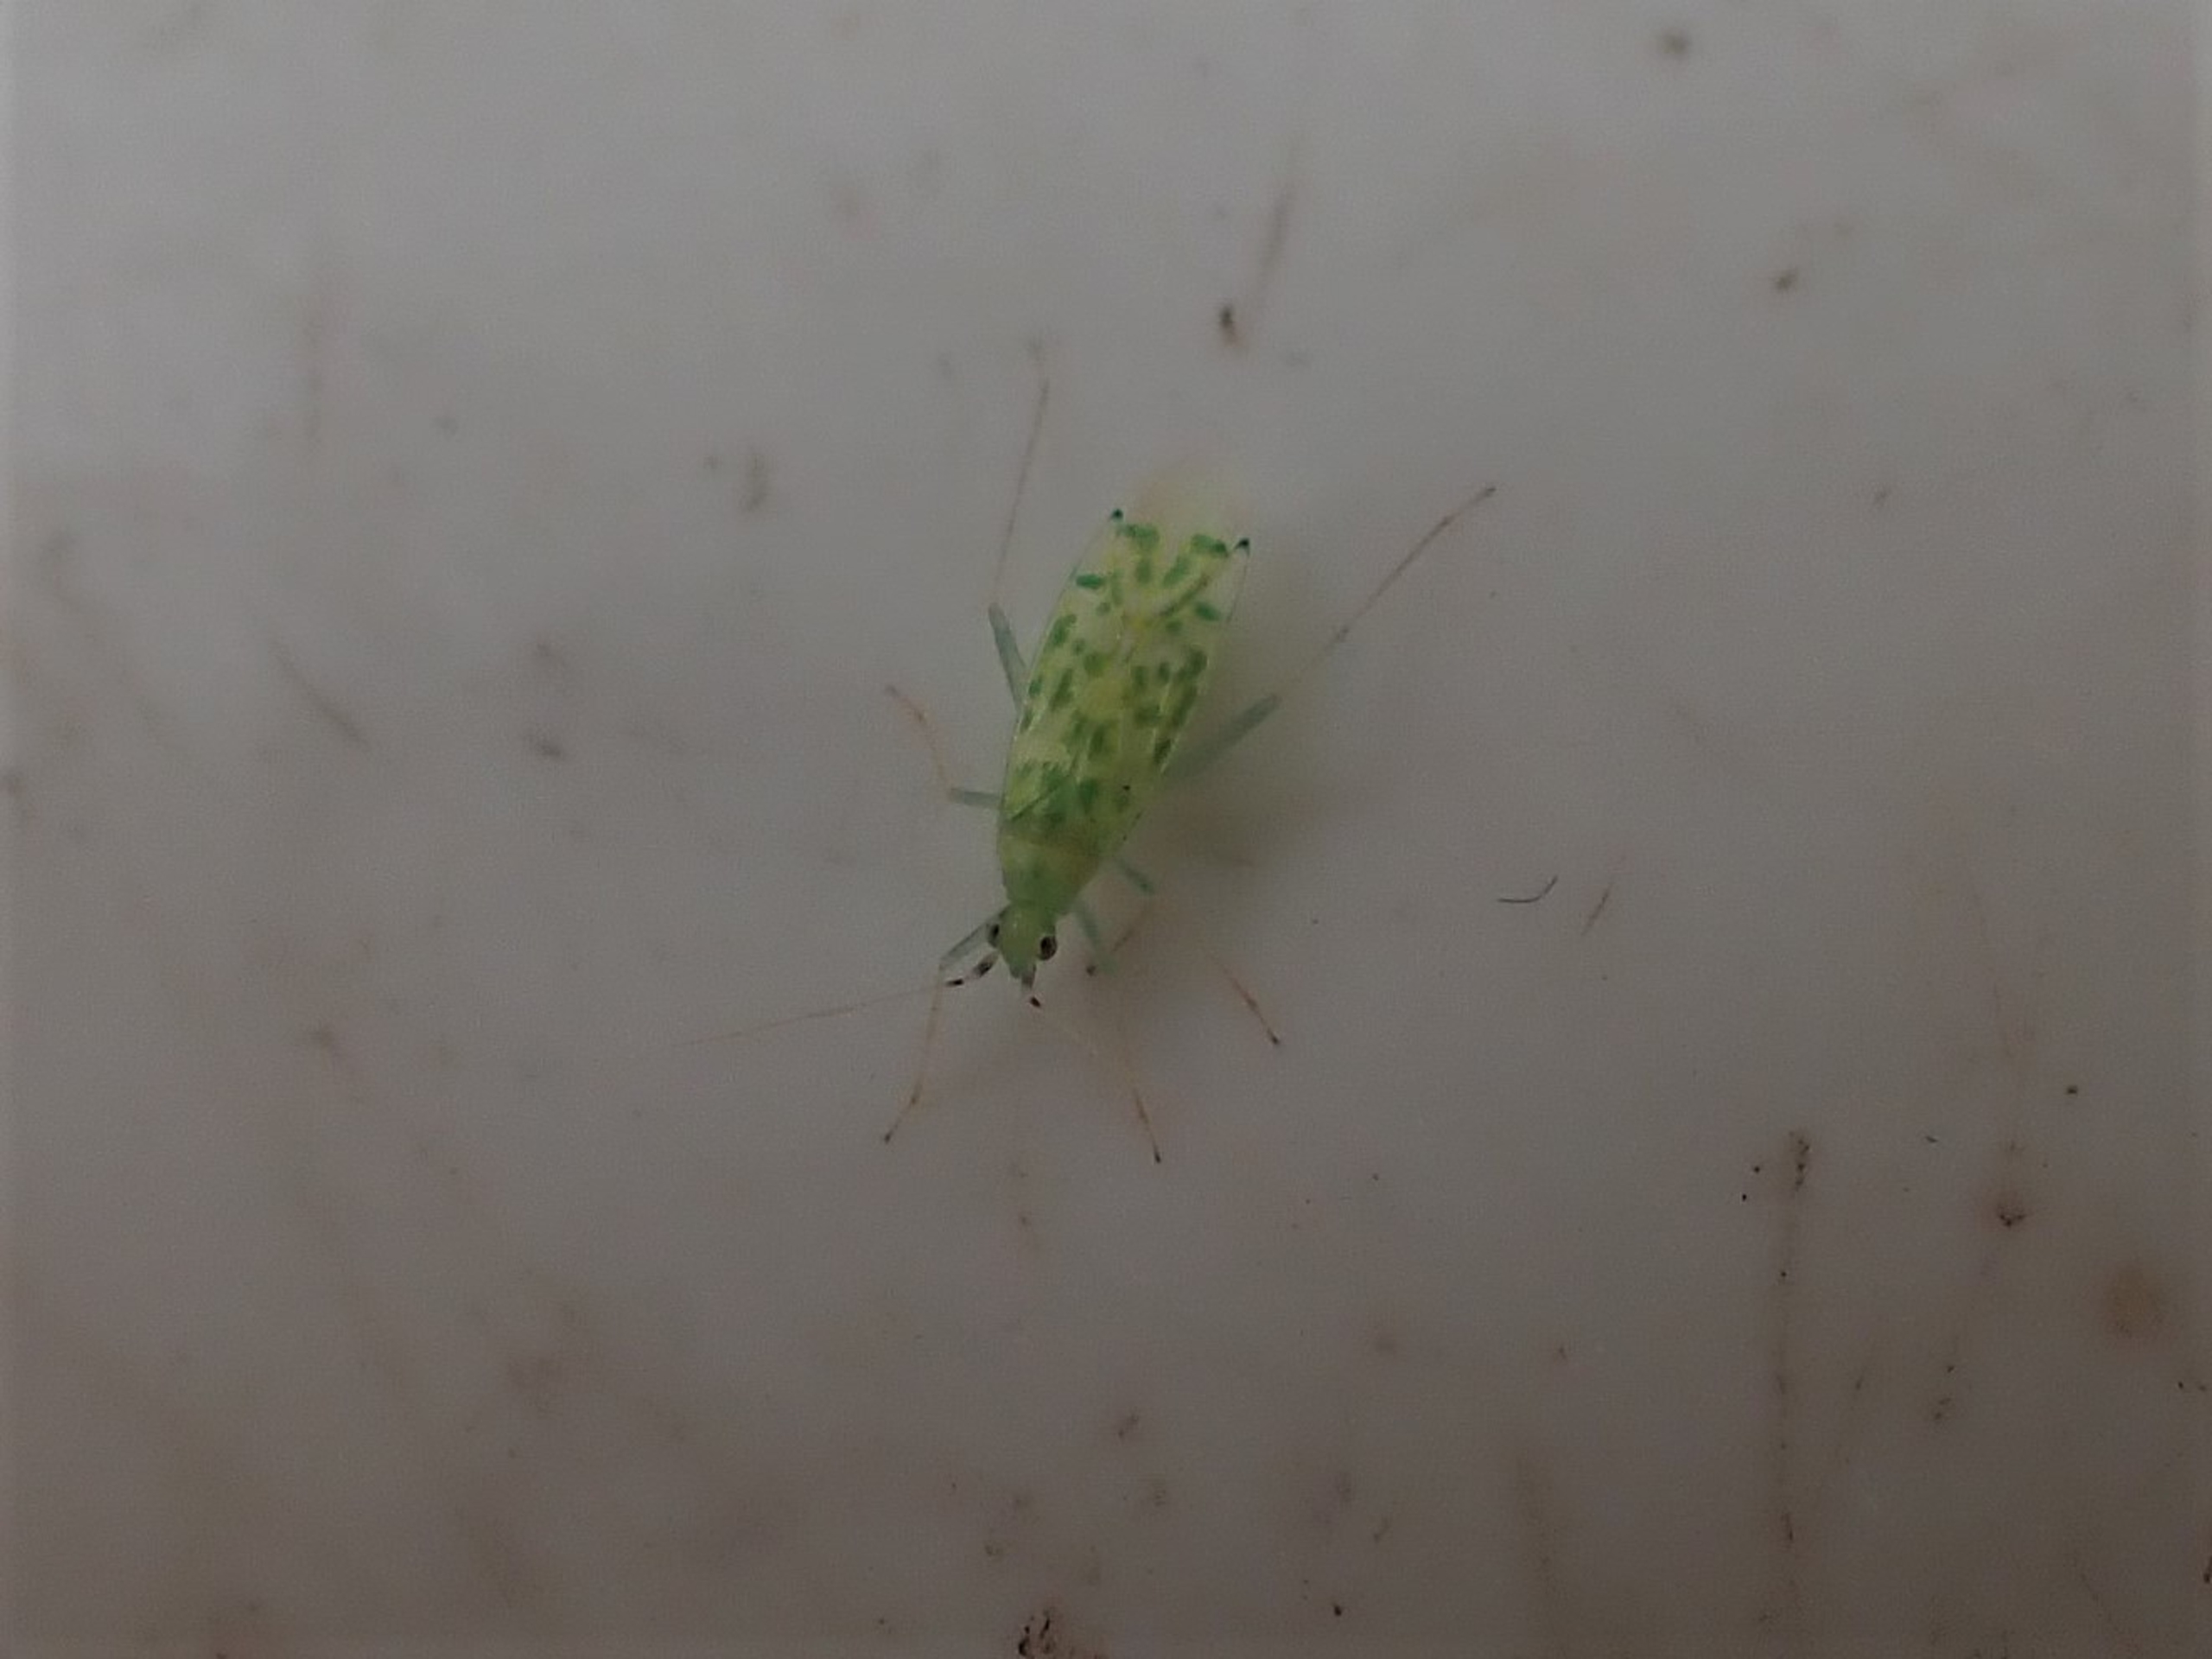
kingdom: Animalia
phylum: Arthropoda
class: Insecta
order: Hemiptera
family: Miridae
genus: Malacocoris
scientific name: Malacocoris chlorizans
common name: Sart hasseltæge
